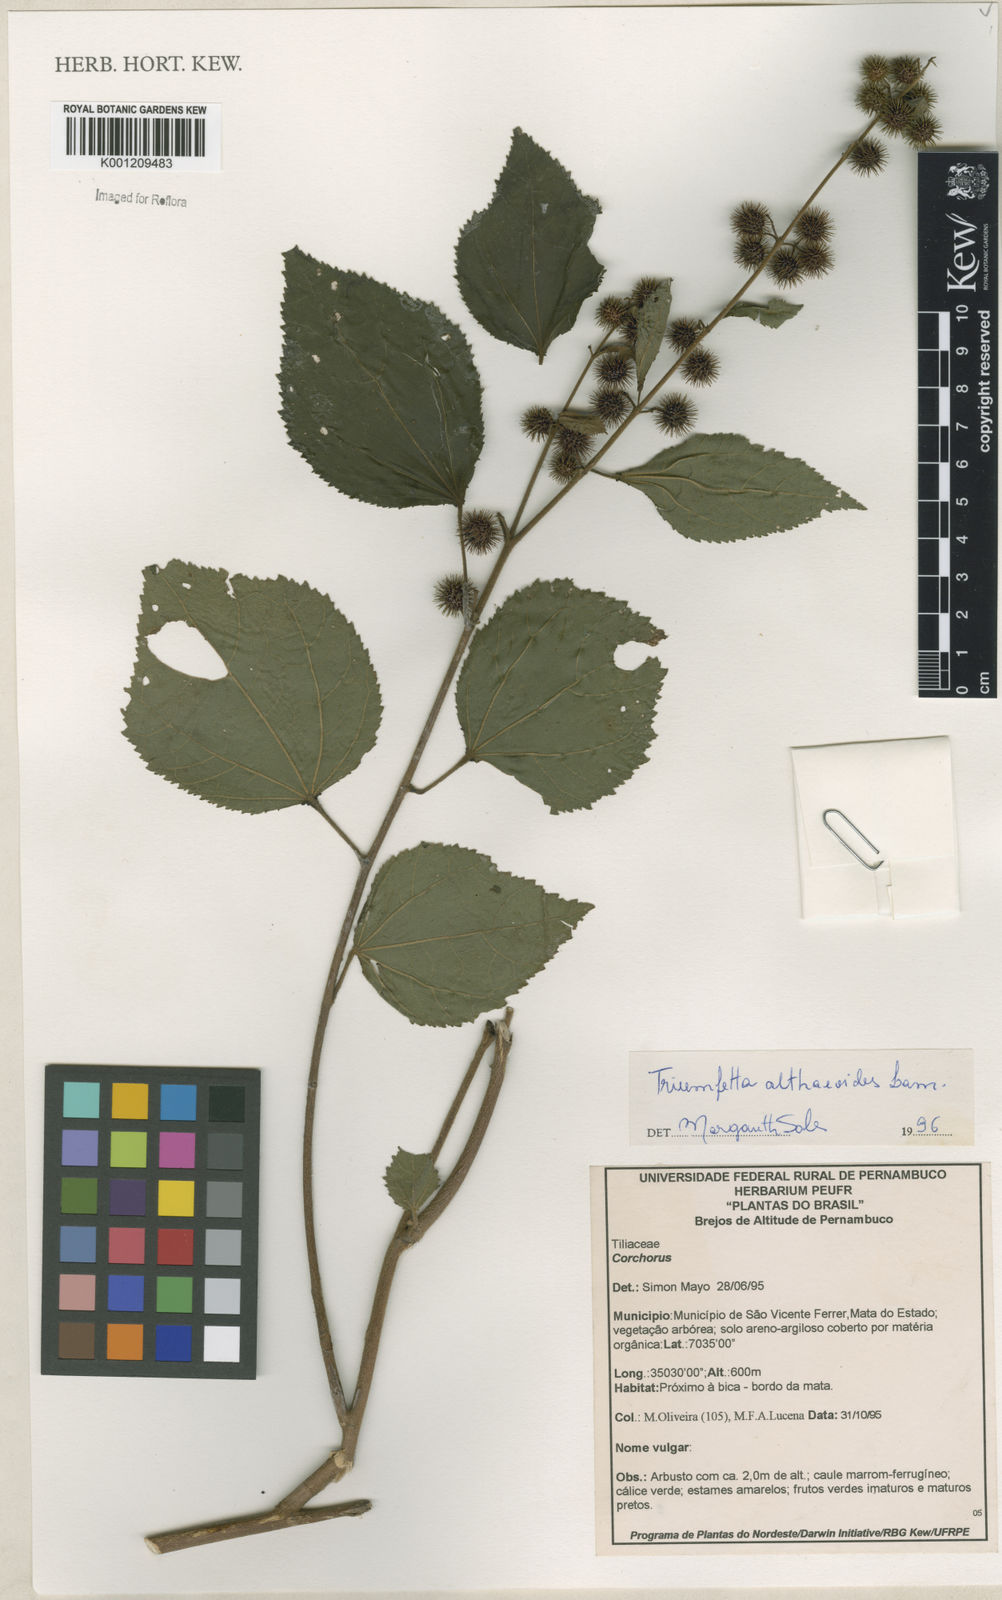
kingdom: Plantae
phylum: Tracheophyta
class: Magnoliopsida
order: Malvales
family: Malvaceae
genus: Triumfetta
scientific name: Triumfetta althaeoides
